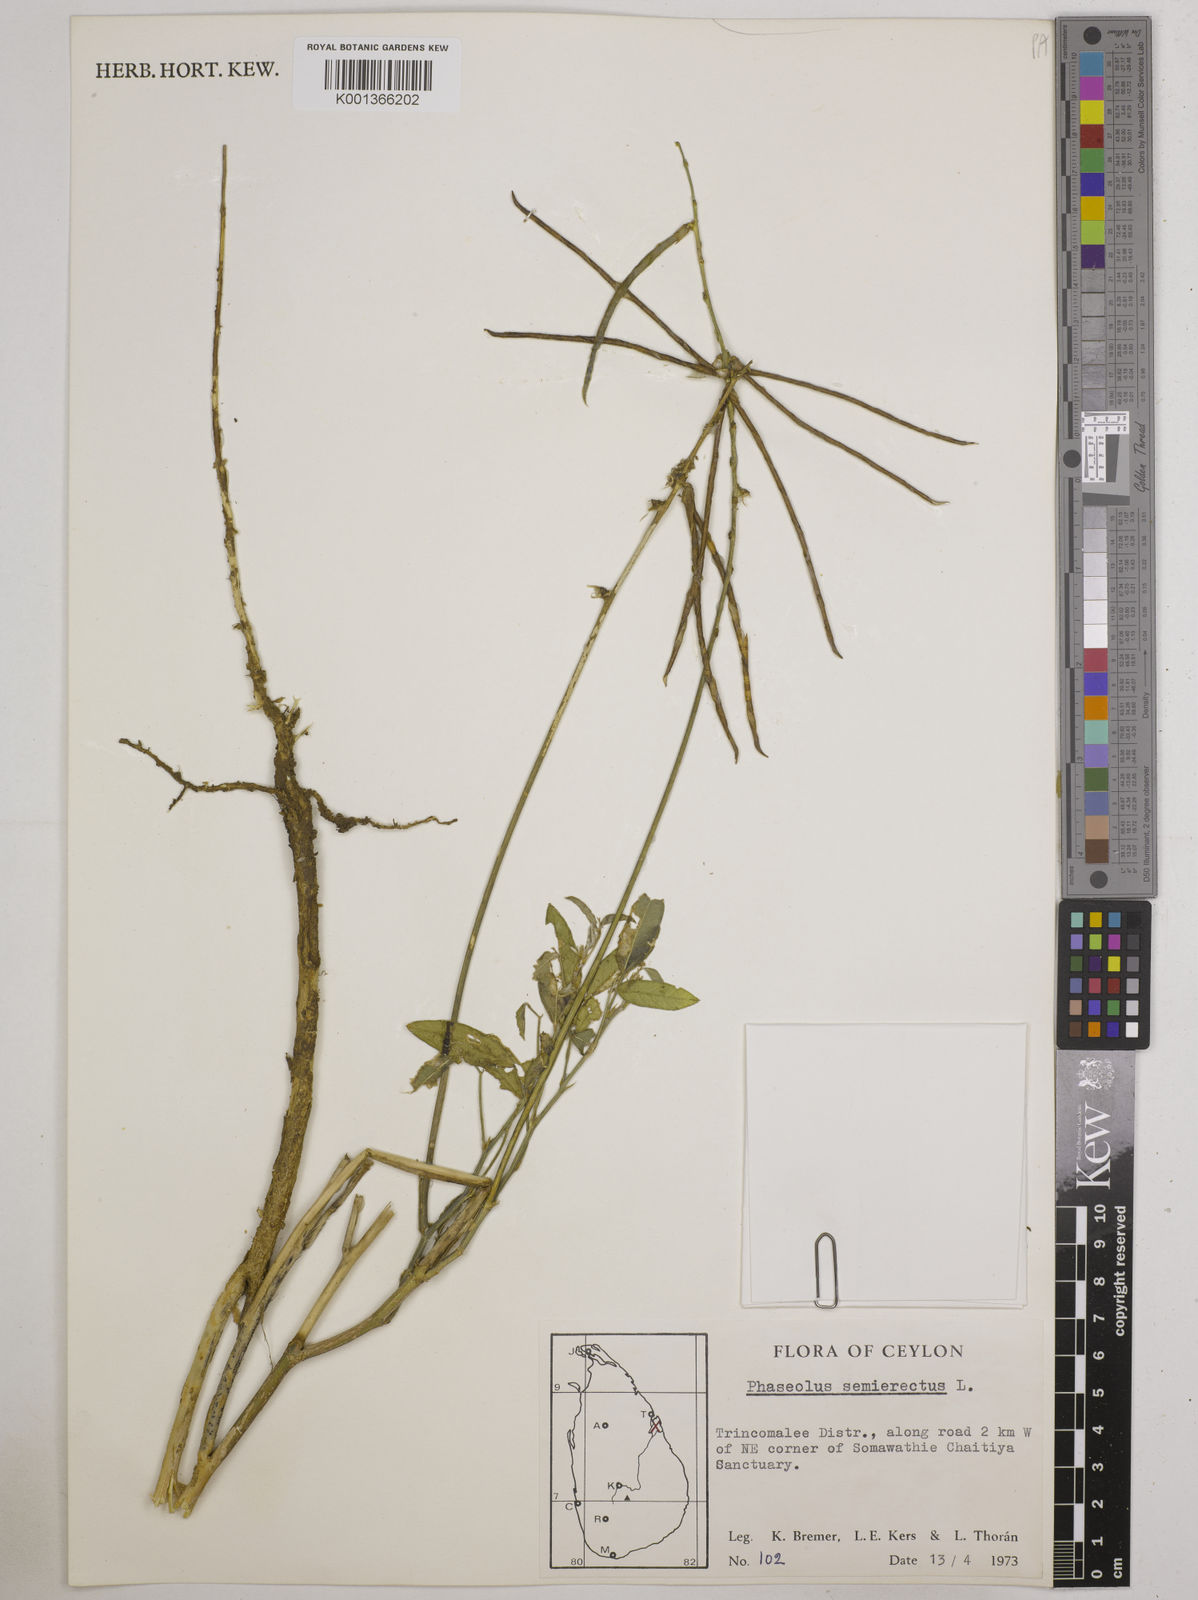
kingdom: Plantae
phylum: Tracheophyta
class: Magnoliopsida
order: Fabales
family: Fabaceae
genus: Macroptilium
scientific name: Macroptilium lathyroides
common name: Wild bushbean
